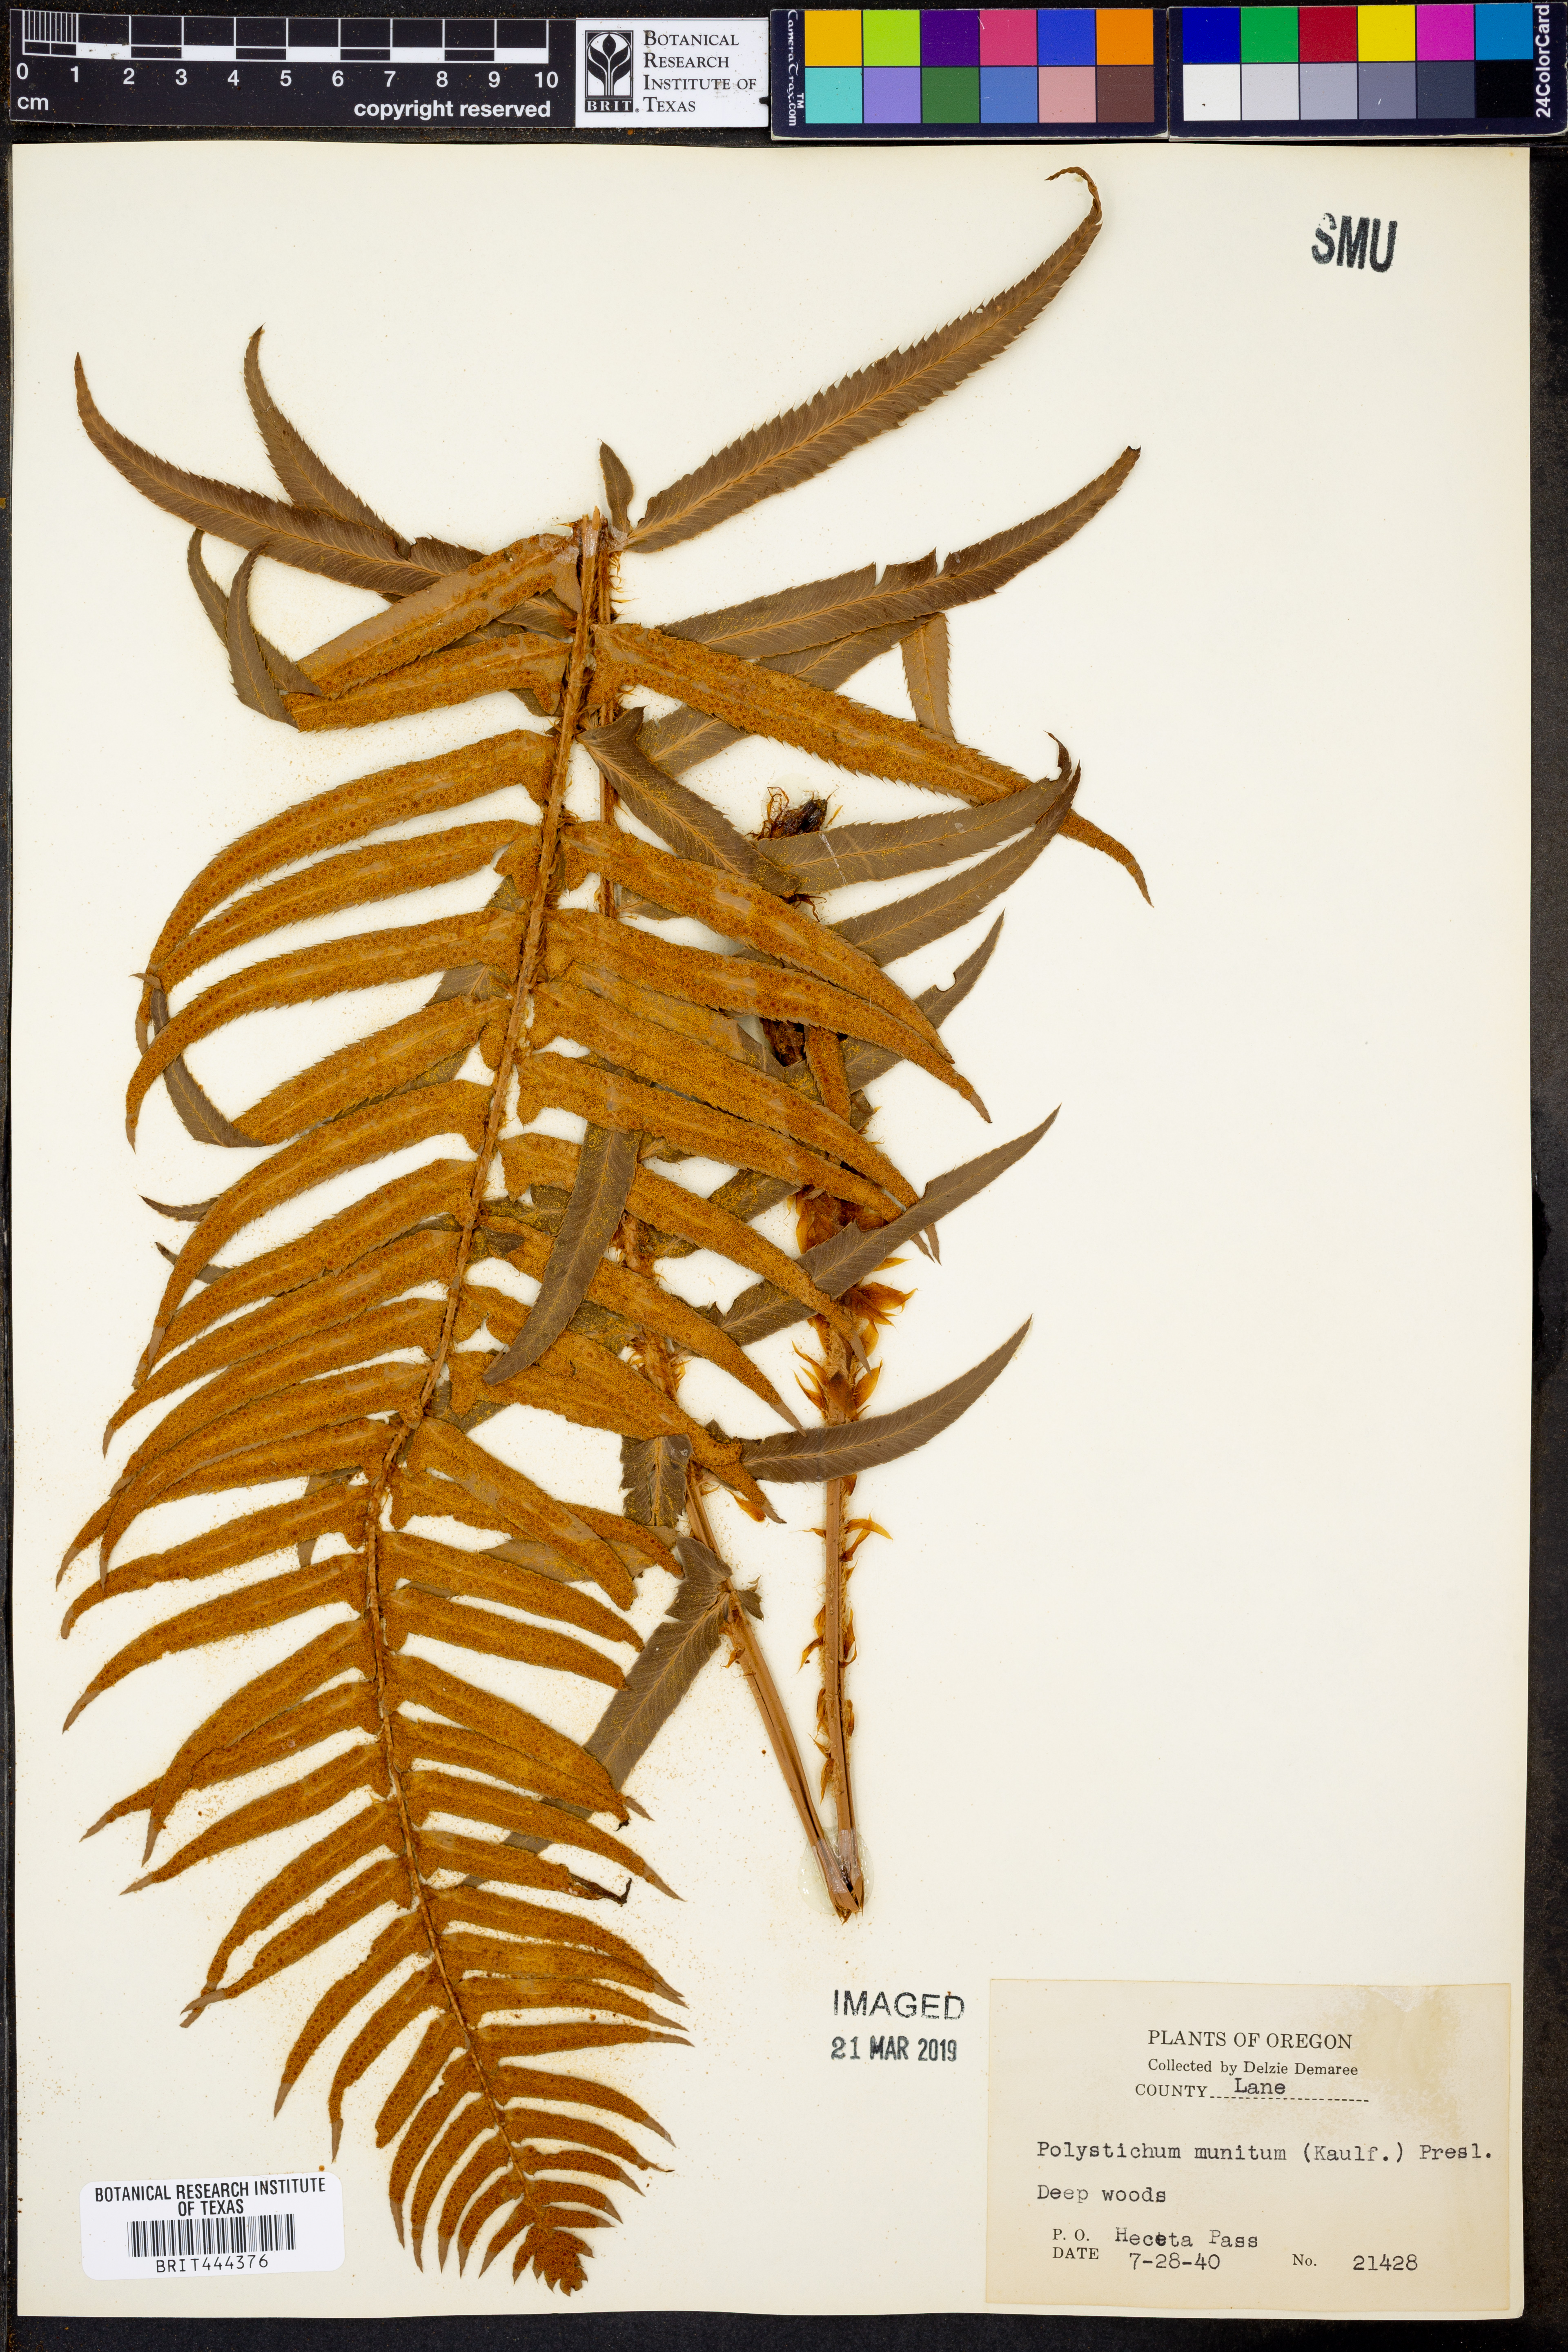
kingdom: Plantae
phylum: Tracheophyta
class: Polypodiopsida
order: Polypodiales
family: Dryopteridaceae
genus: Polystichum
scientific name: Polystichum munitum
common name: Western sword-fern
